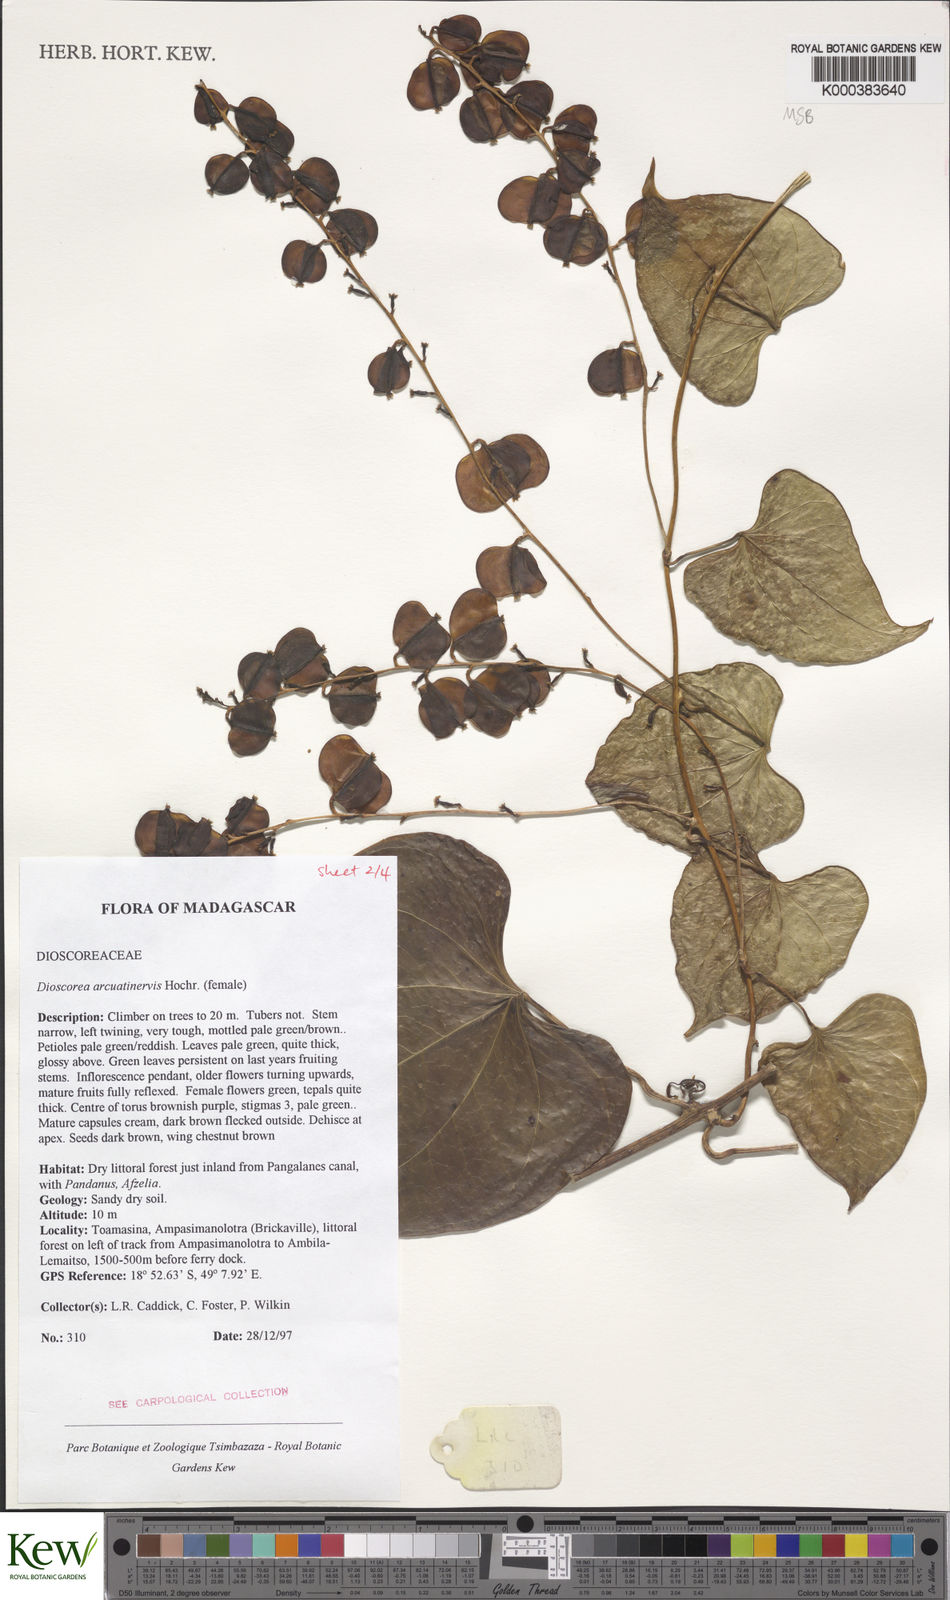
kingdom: Plantae
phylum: Tracheophyta
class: Liliopsida
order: Dioscoreales
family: Dioscoreaceae
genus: Dioscorea
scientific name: Dioscorea arcuatinervis
